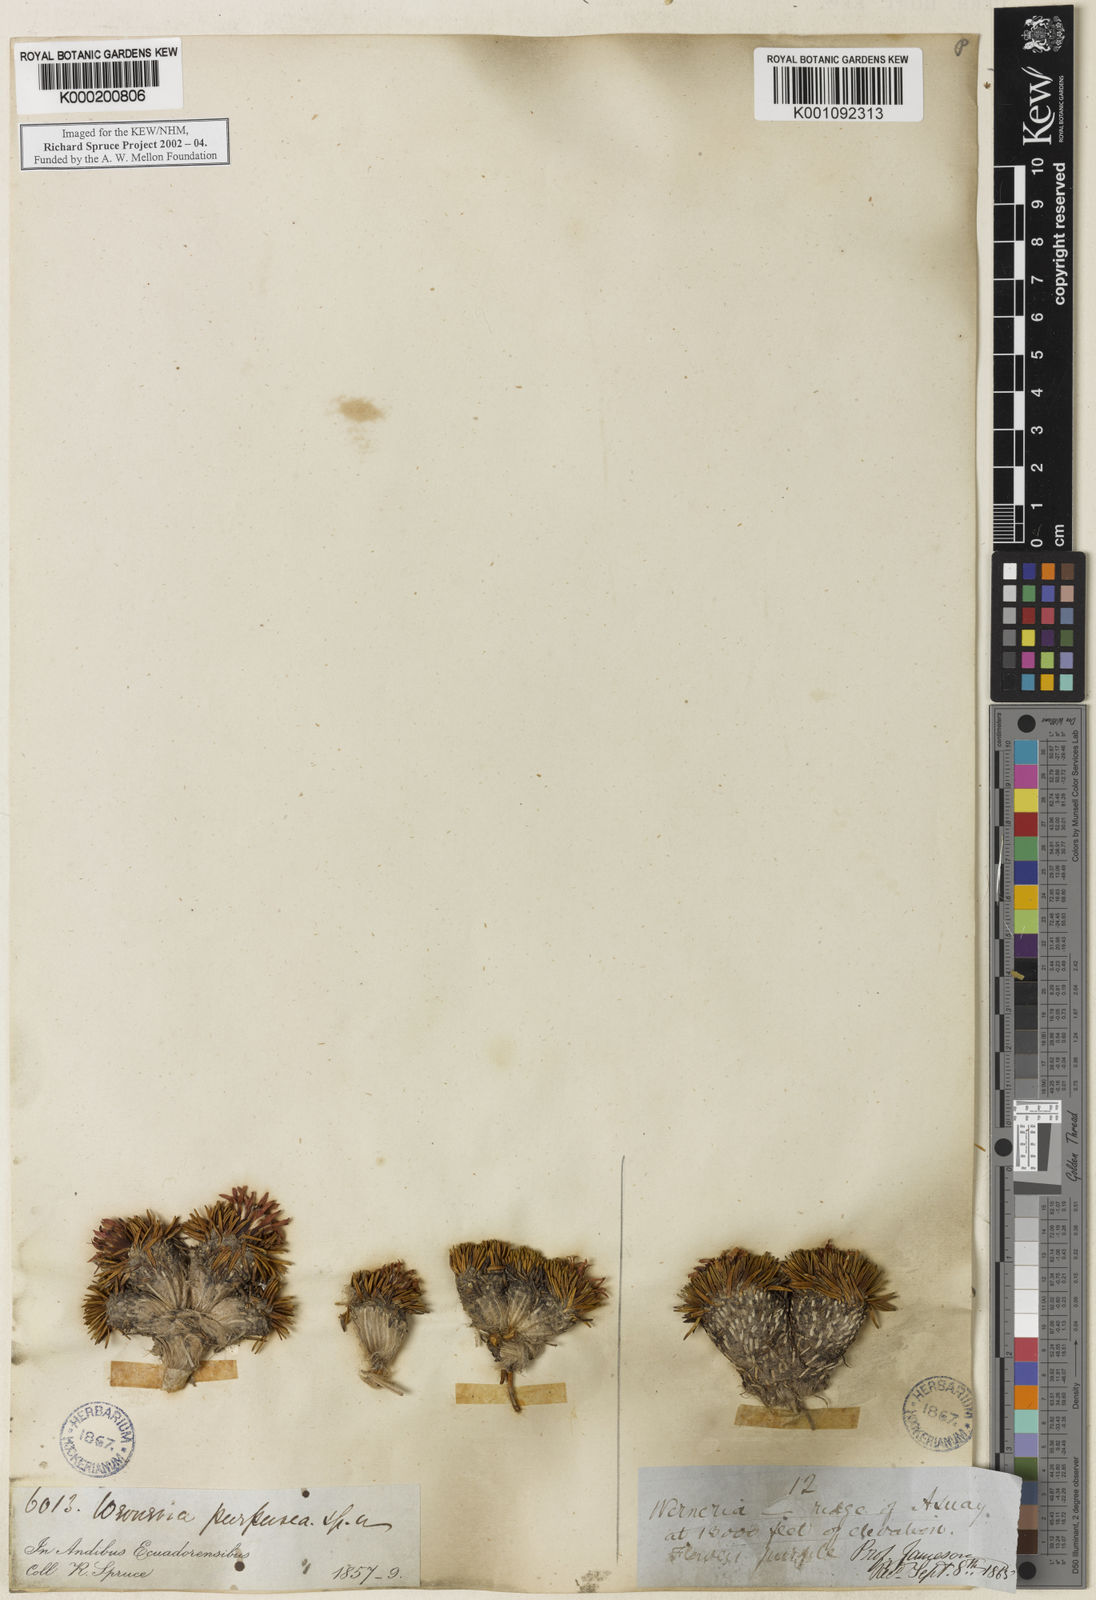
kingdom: Plantae
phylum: Tracheophyta
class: Magnoliopsida
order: Asterales
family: Asteraceae
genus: Werneria
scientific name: Werneria rosea
